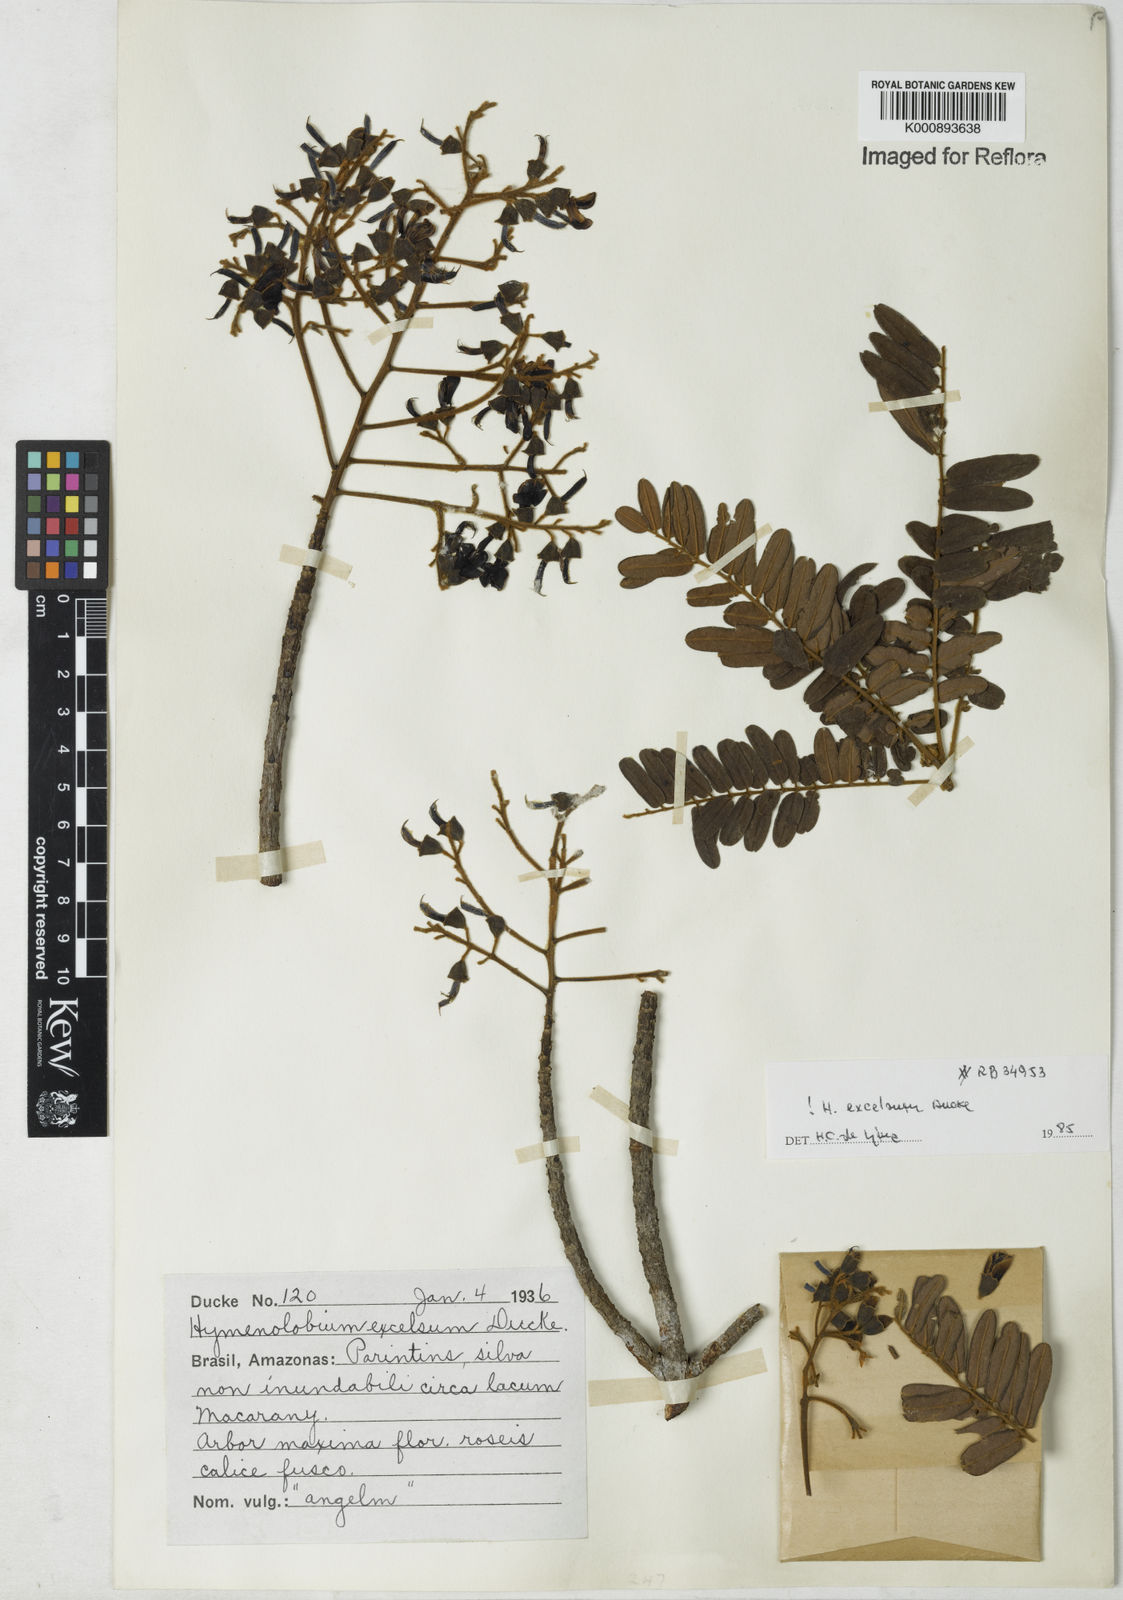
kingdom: Plantae
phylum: Tracheophyta
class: Magnoliopsida
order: Fabales
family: Fabaceae
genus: Hymenolobium
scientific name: Hymenolobium excelsum
